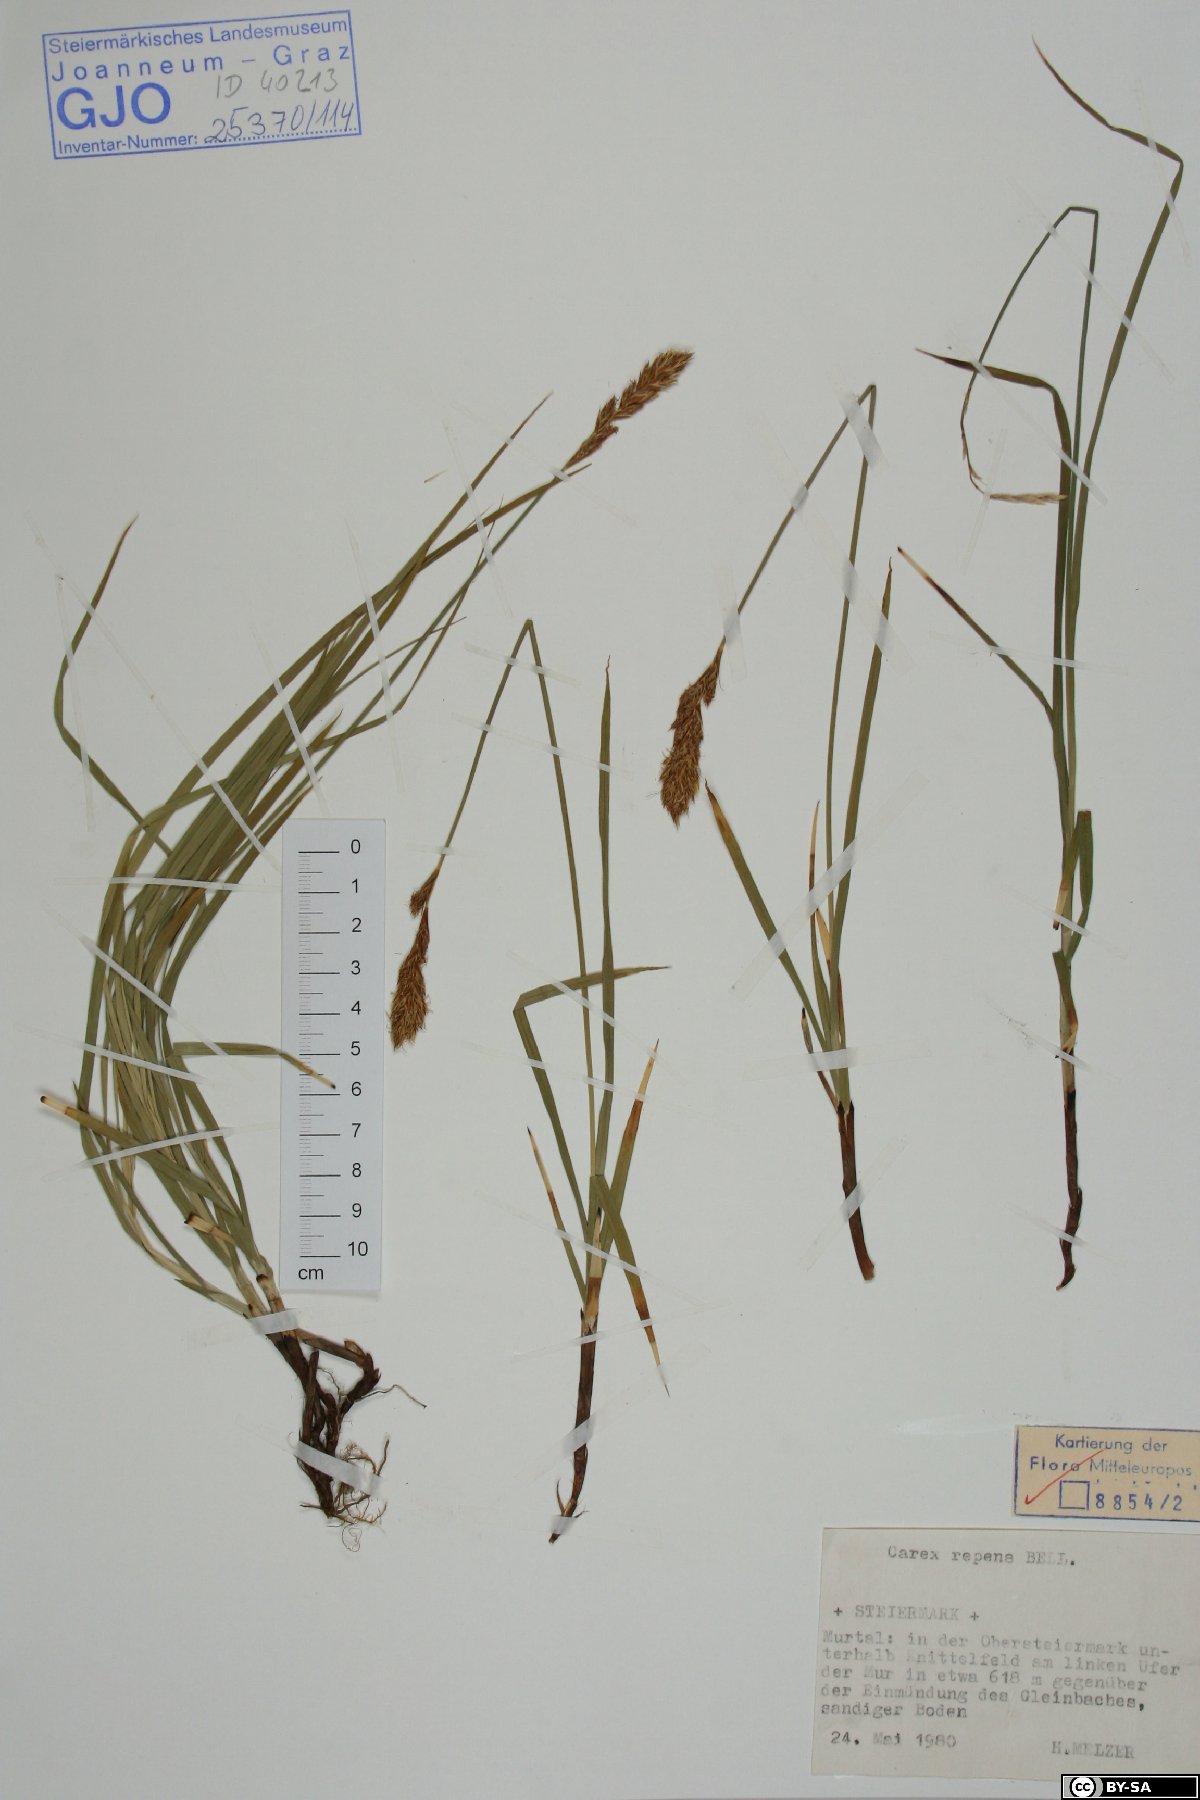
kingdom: Plantae
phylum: Tracheophyta
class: Liliopsida
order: Poales
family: Cyperaceae
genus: Carex
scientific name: Carex repens
